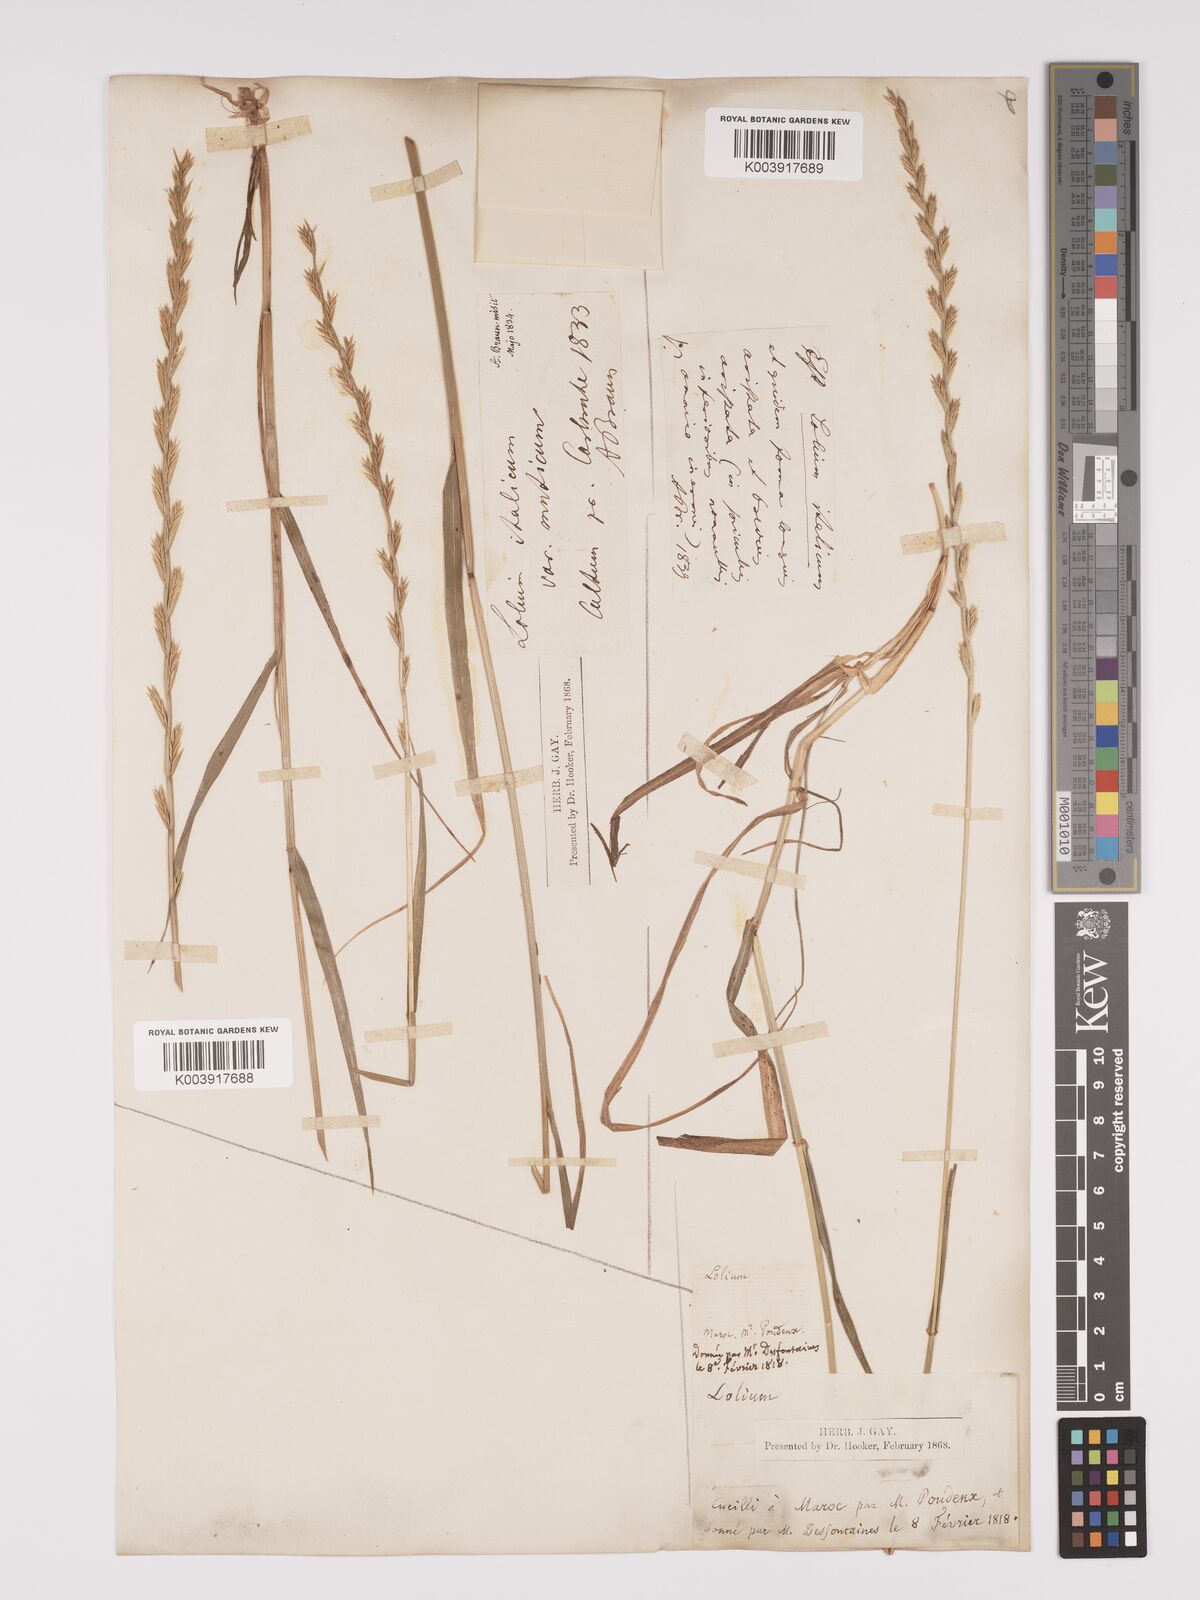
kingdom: Plantae
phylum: Tracheophyta
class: Liliopsida
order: Poales
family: Poaceae
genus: Lolium
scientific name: Lolium rigidum
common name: Wimmera ryegrass
